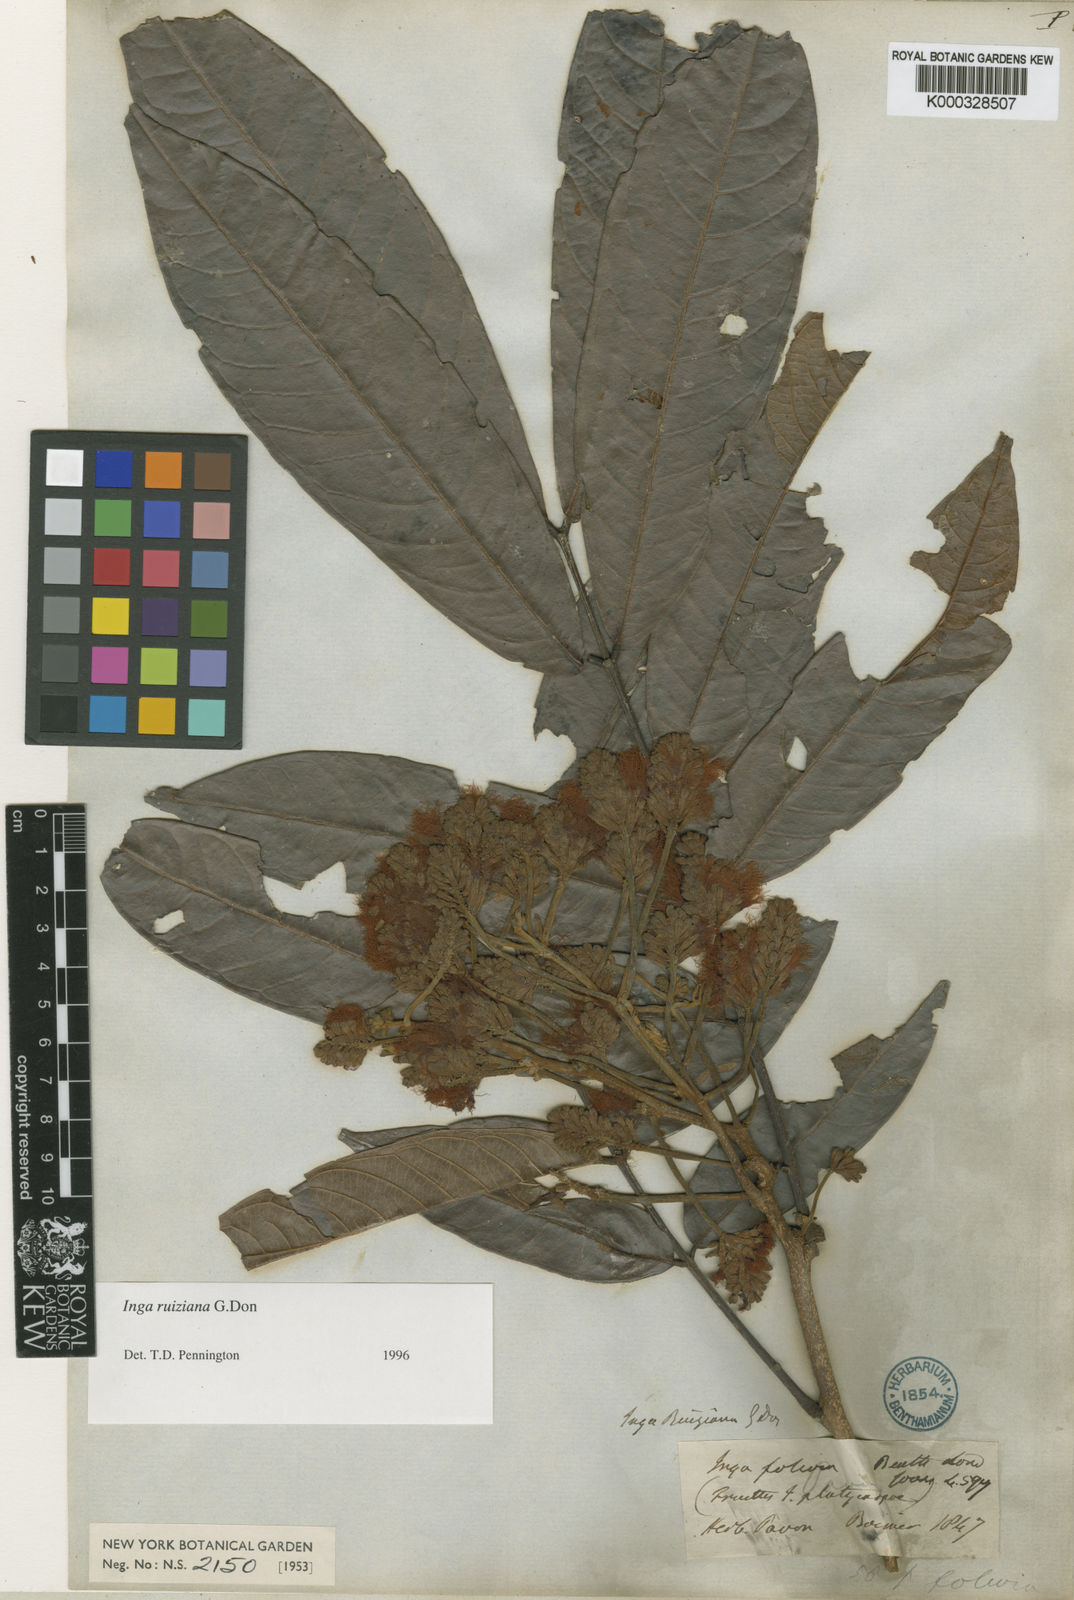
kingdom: Plantae
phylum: Tracheophyta
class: Magnoliopsida
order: Fabales
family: Fabaceae
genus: Inga
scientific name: Inga ruiziana
